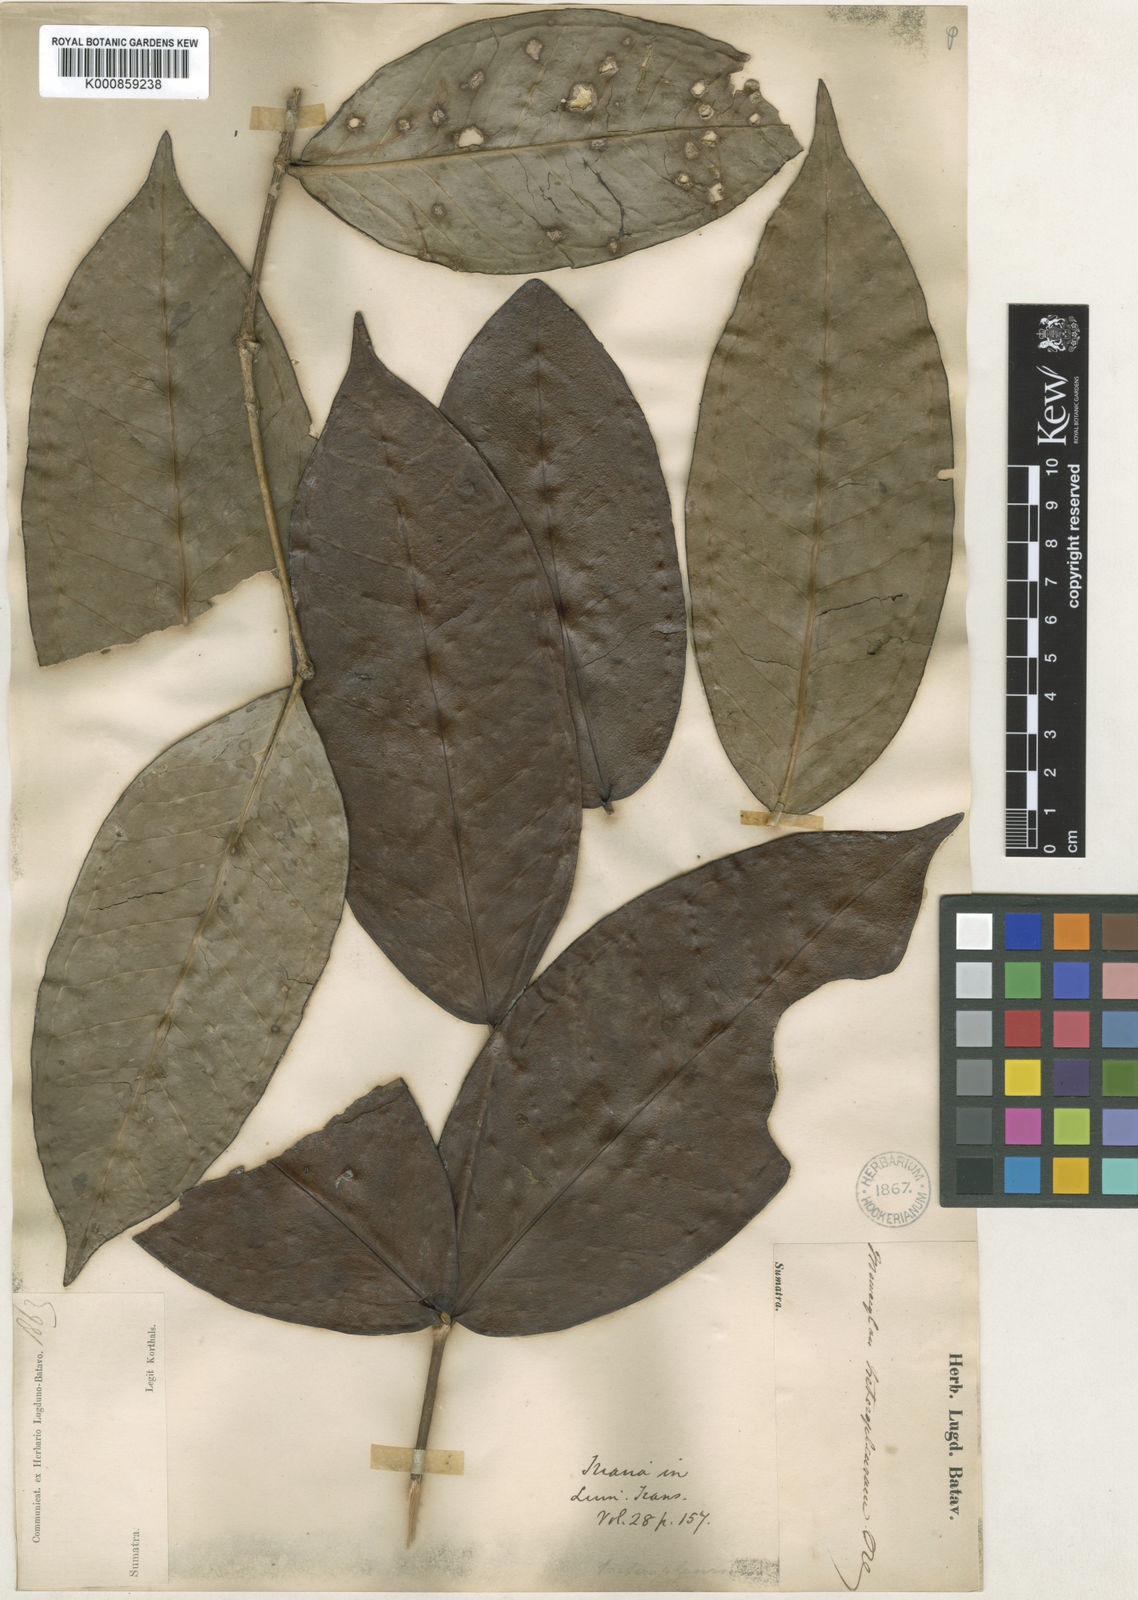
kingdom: Plantae
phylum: Tracheophyta
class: Magnoliopsida
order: Myrtales
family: Melastomataceae
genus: Memecylon
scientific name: Memecylon excelsum
